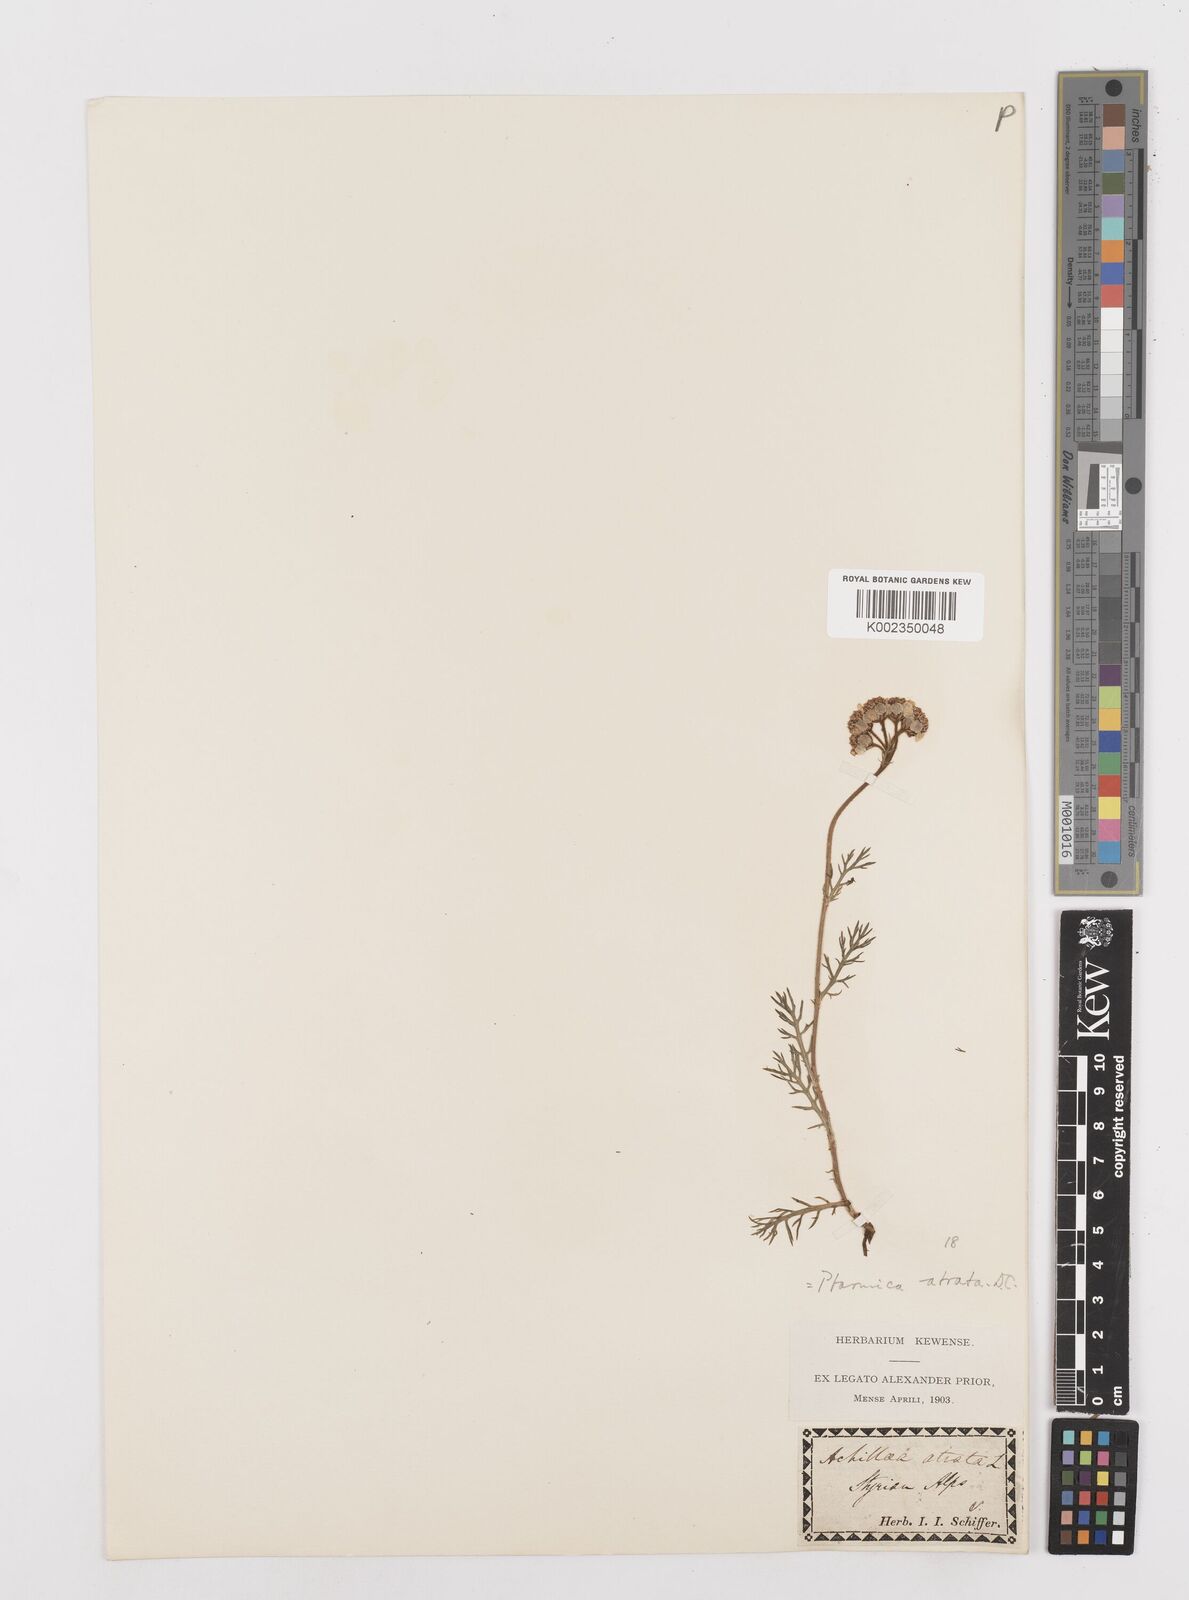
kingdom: Plantae
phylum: Tracheophyta
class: Magnoliopsida
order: Asterales
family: Asteraceae
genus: Achillea
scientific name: Achillea atrata
